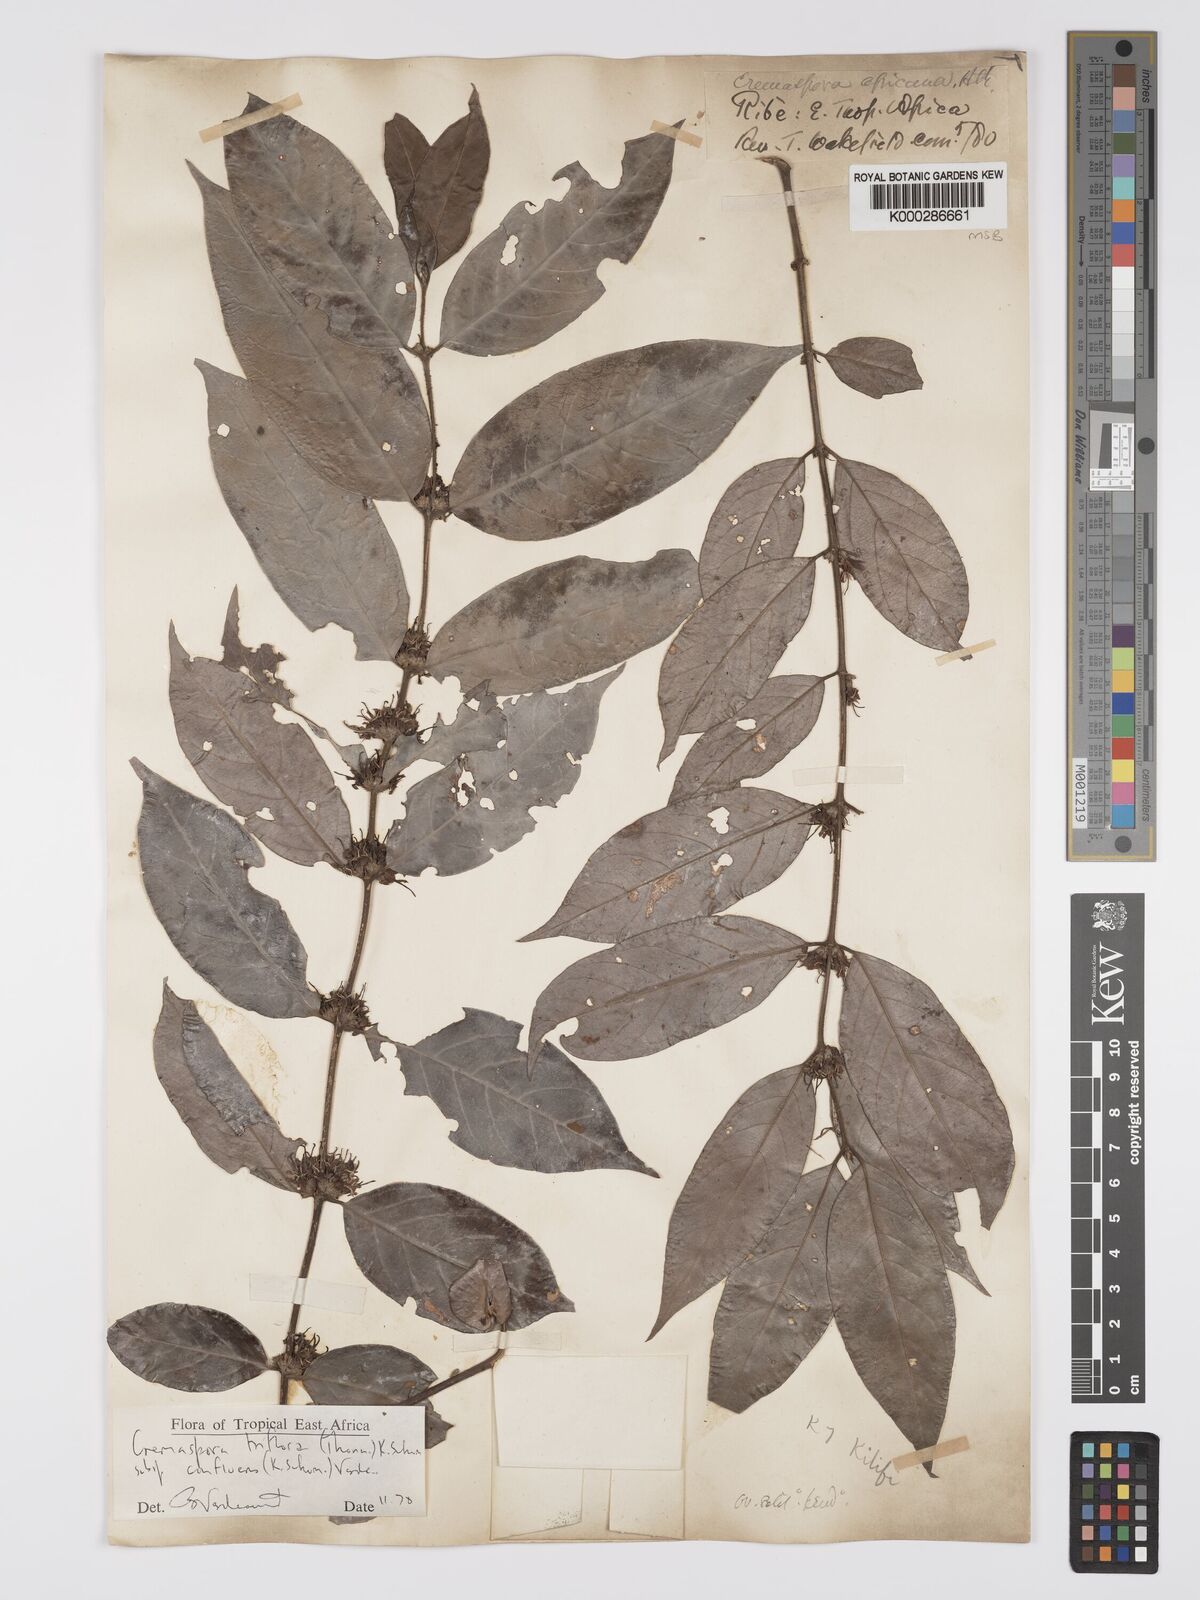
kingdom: Plantae
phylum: Tracheophyta
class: Magnoliopsida
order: Gentianales
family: Rubiaceae
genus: Cremaspora
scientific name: Cremaspora triflora
